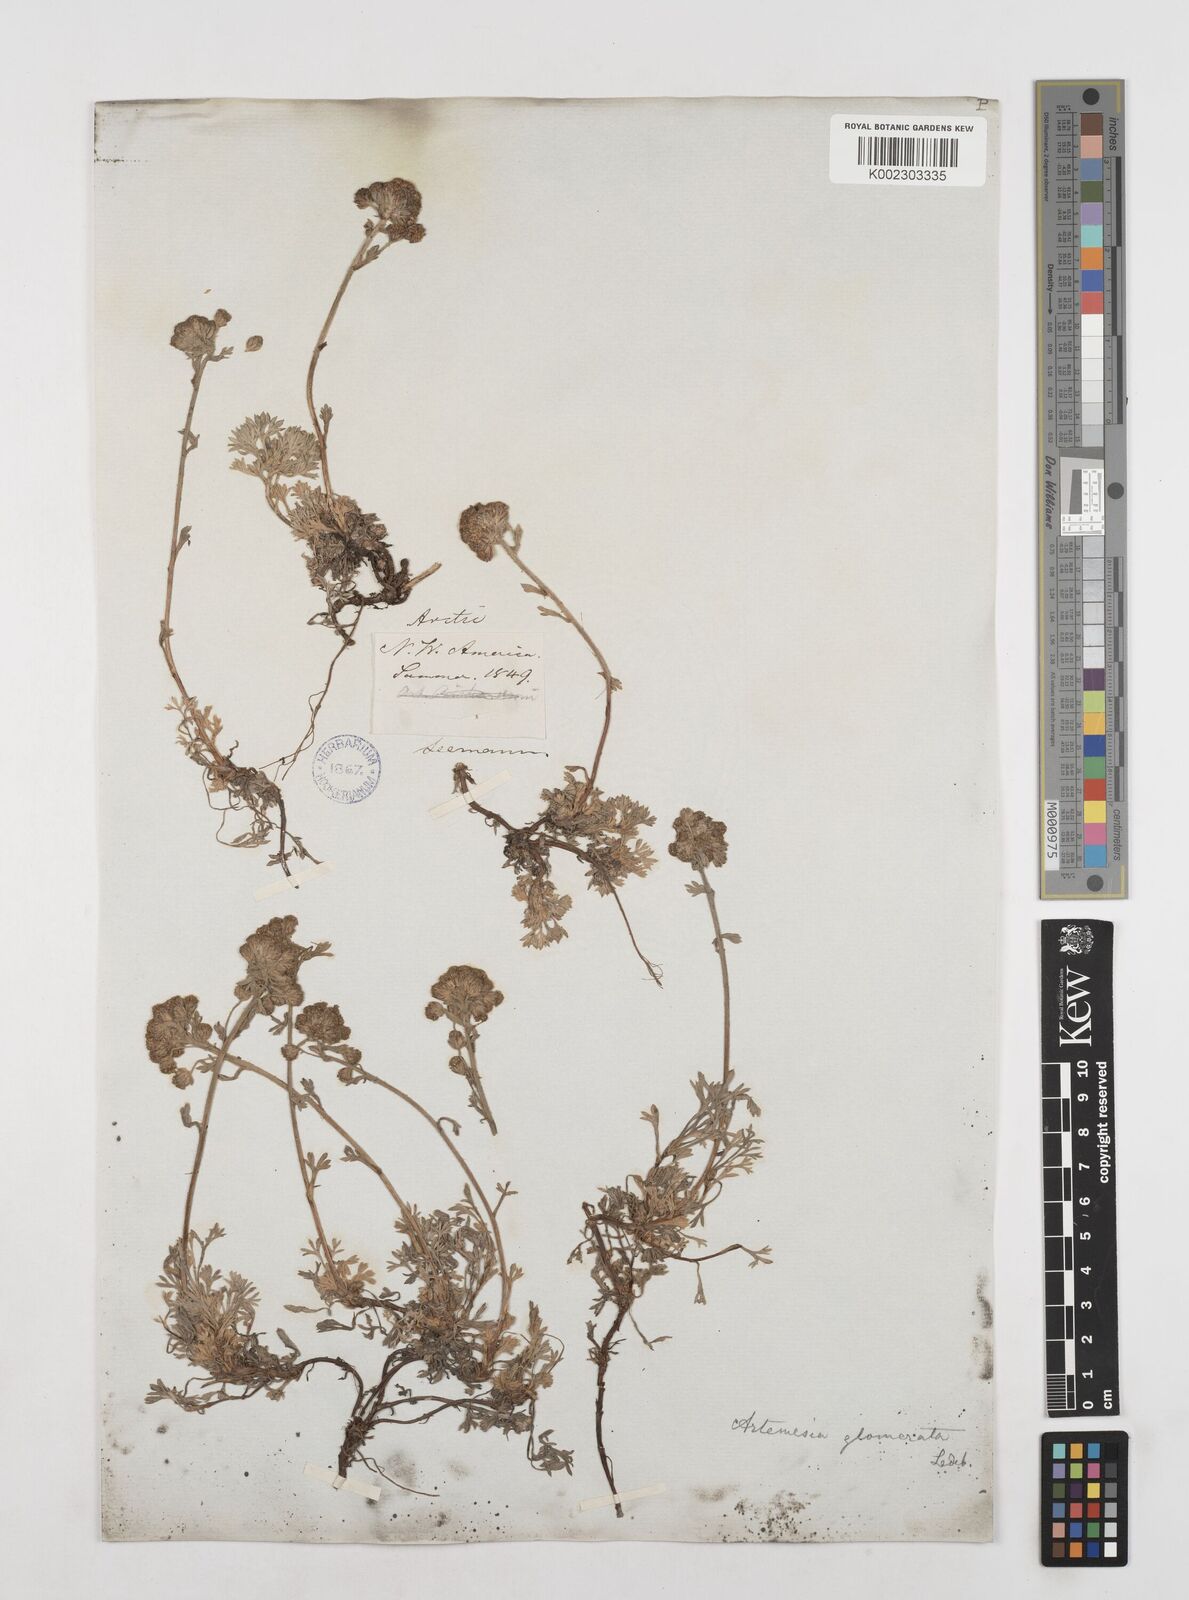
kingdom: Plantae
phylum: Tracheophyta
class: Magnoliopsida
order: Asterales
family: Asteraceae
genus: Artemisia
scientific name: Artemisia glomerata
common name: Pacific alpine wormwood
